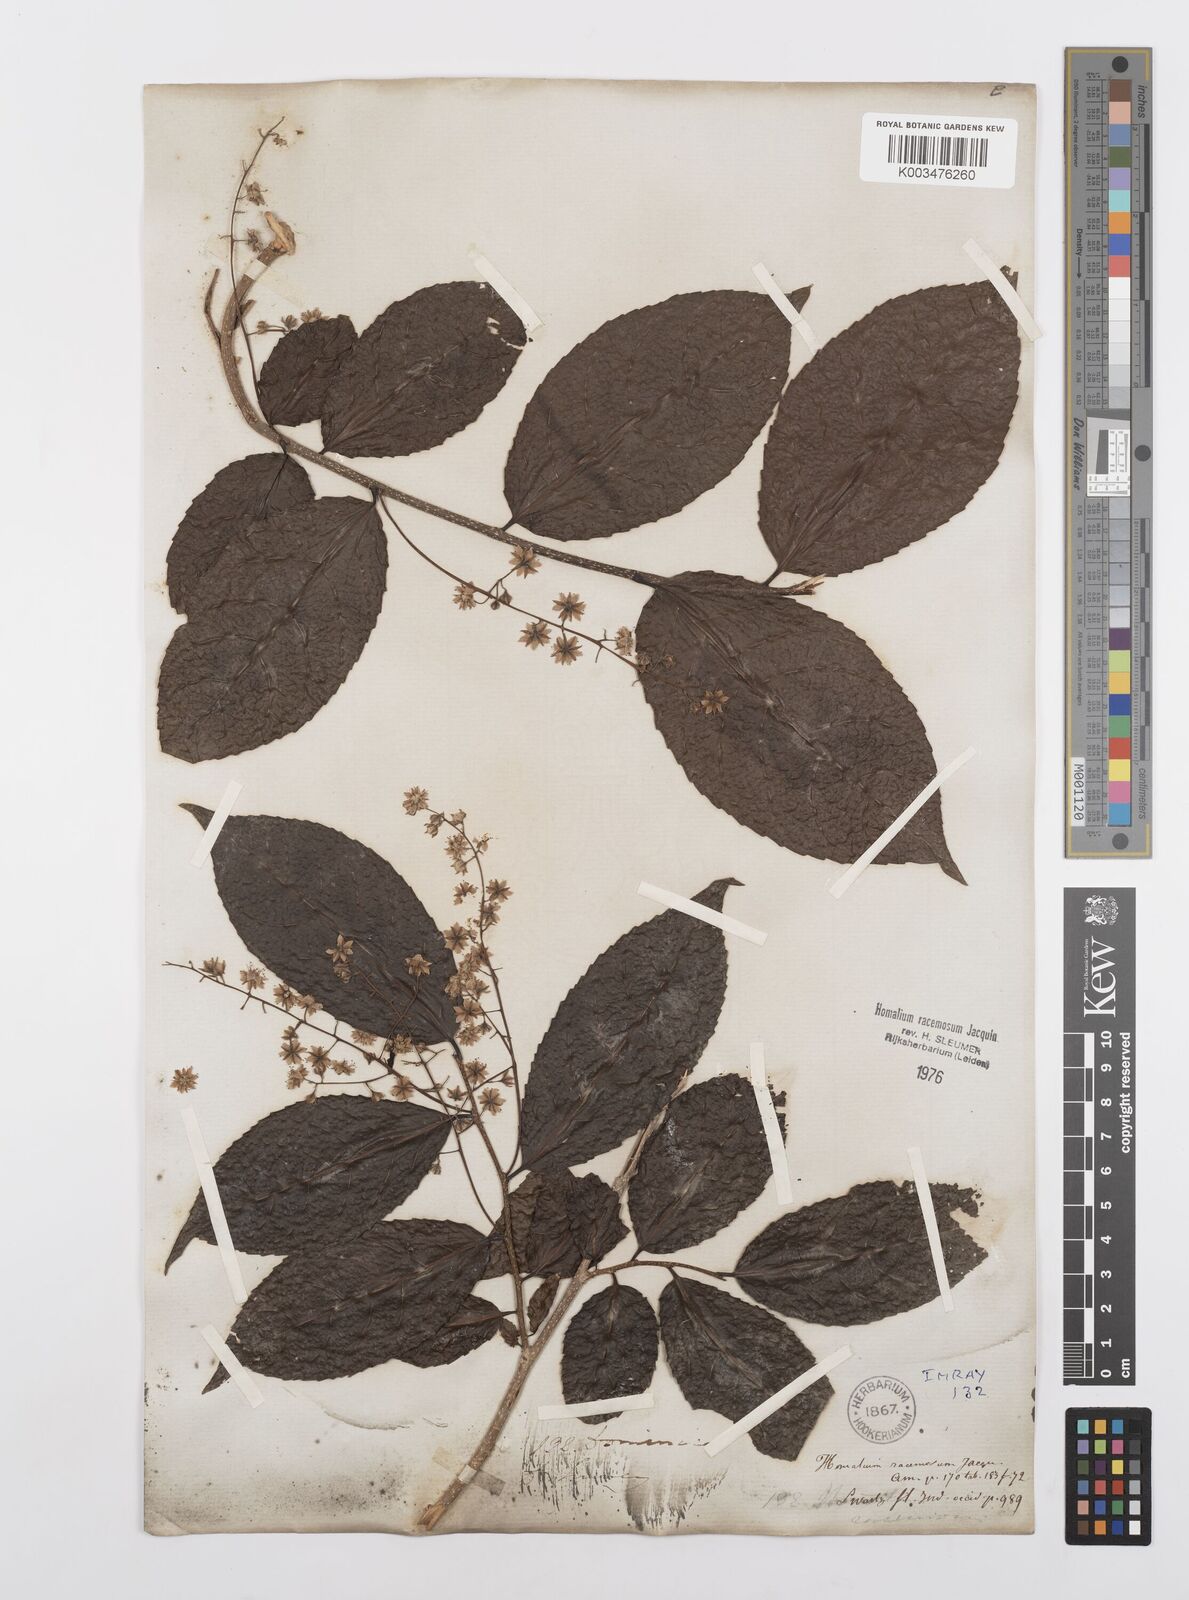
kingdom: Plantae
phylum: Tracheophyta
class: Magnoliopsida
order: Malpighiales
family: Salicaceae
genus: Homalium
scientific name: Homalium racemosum
